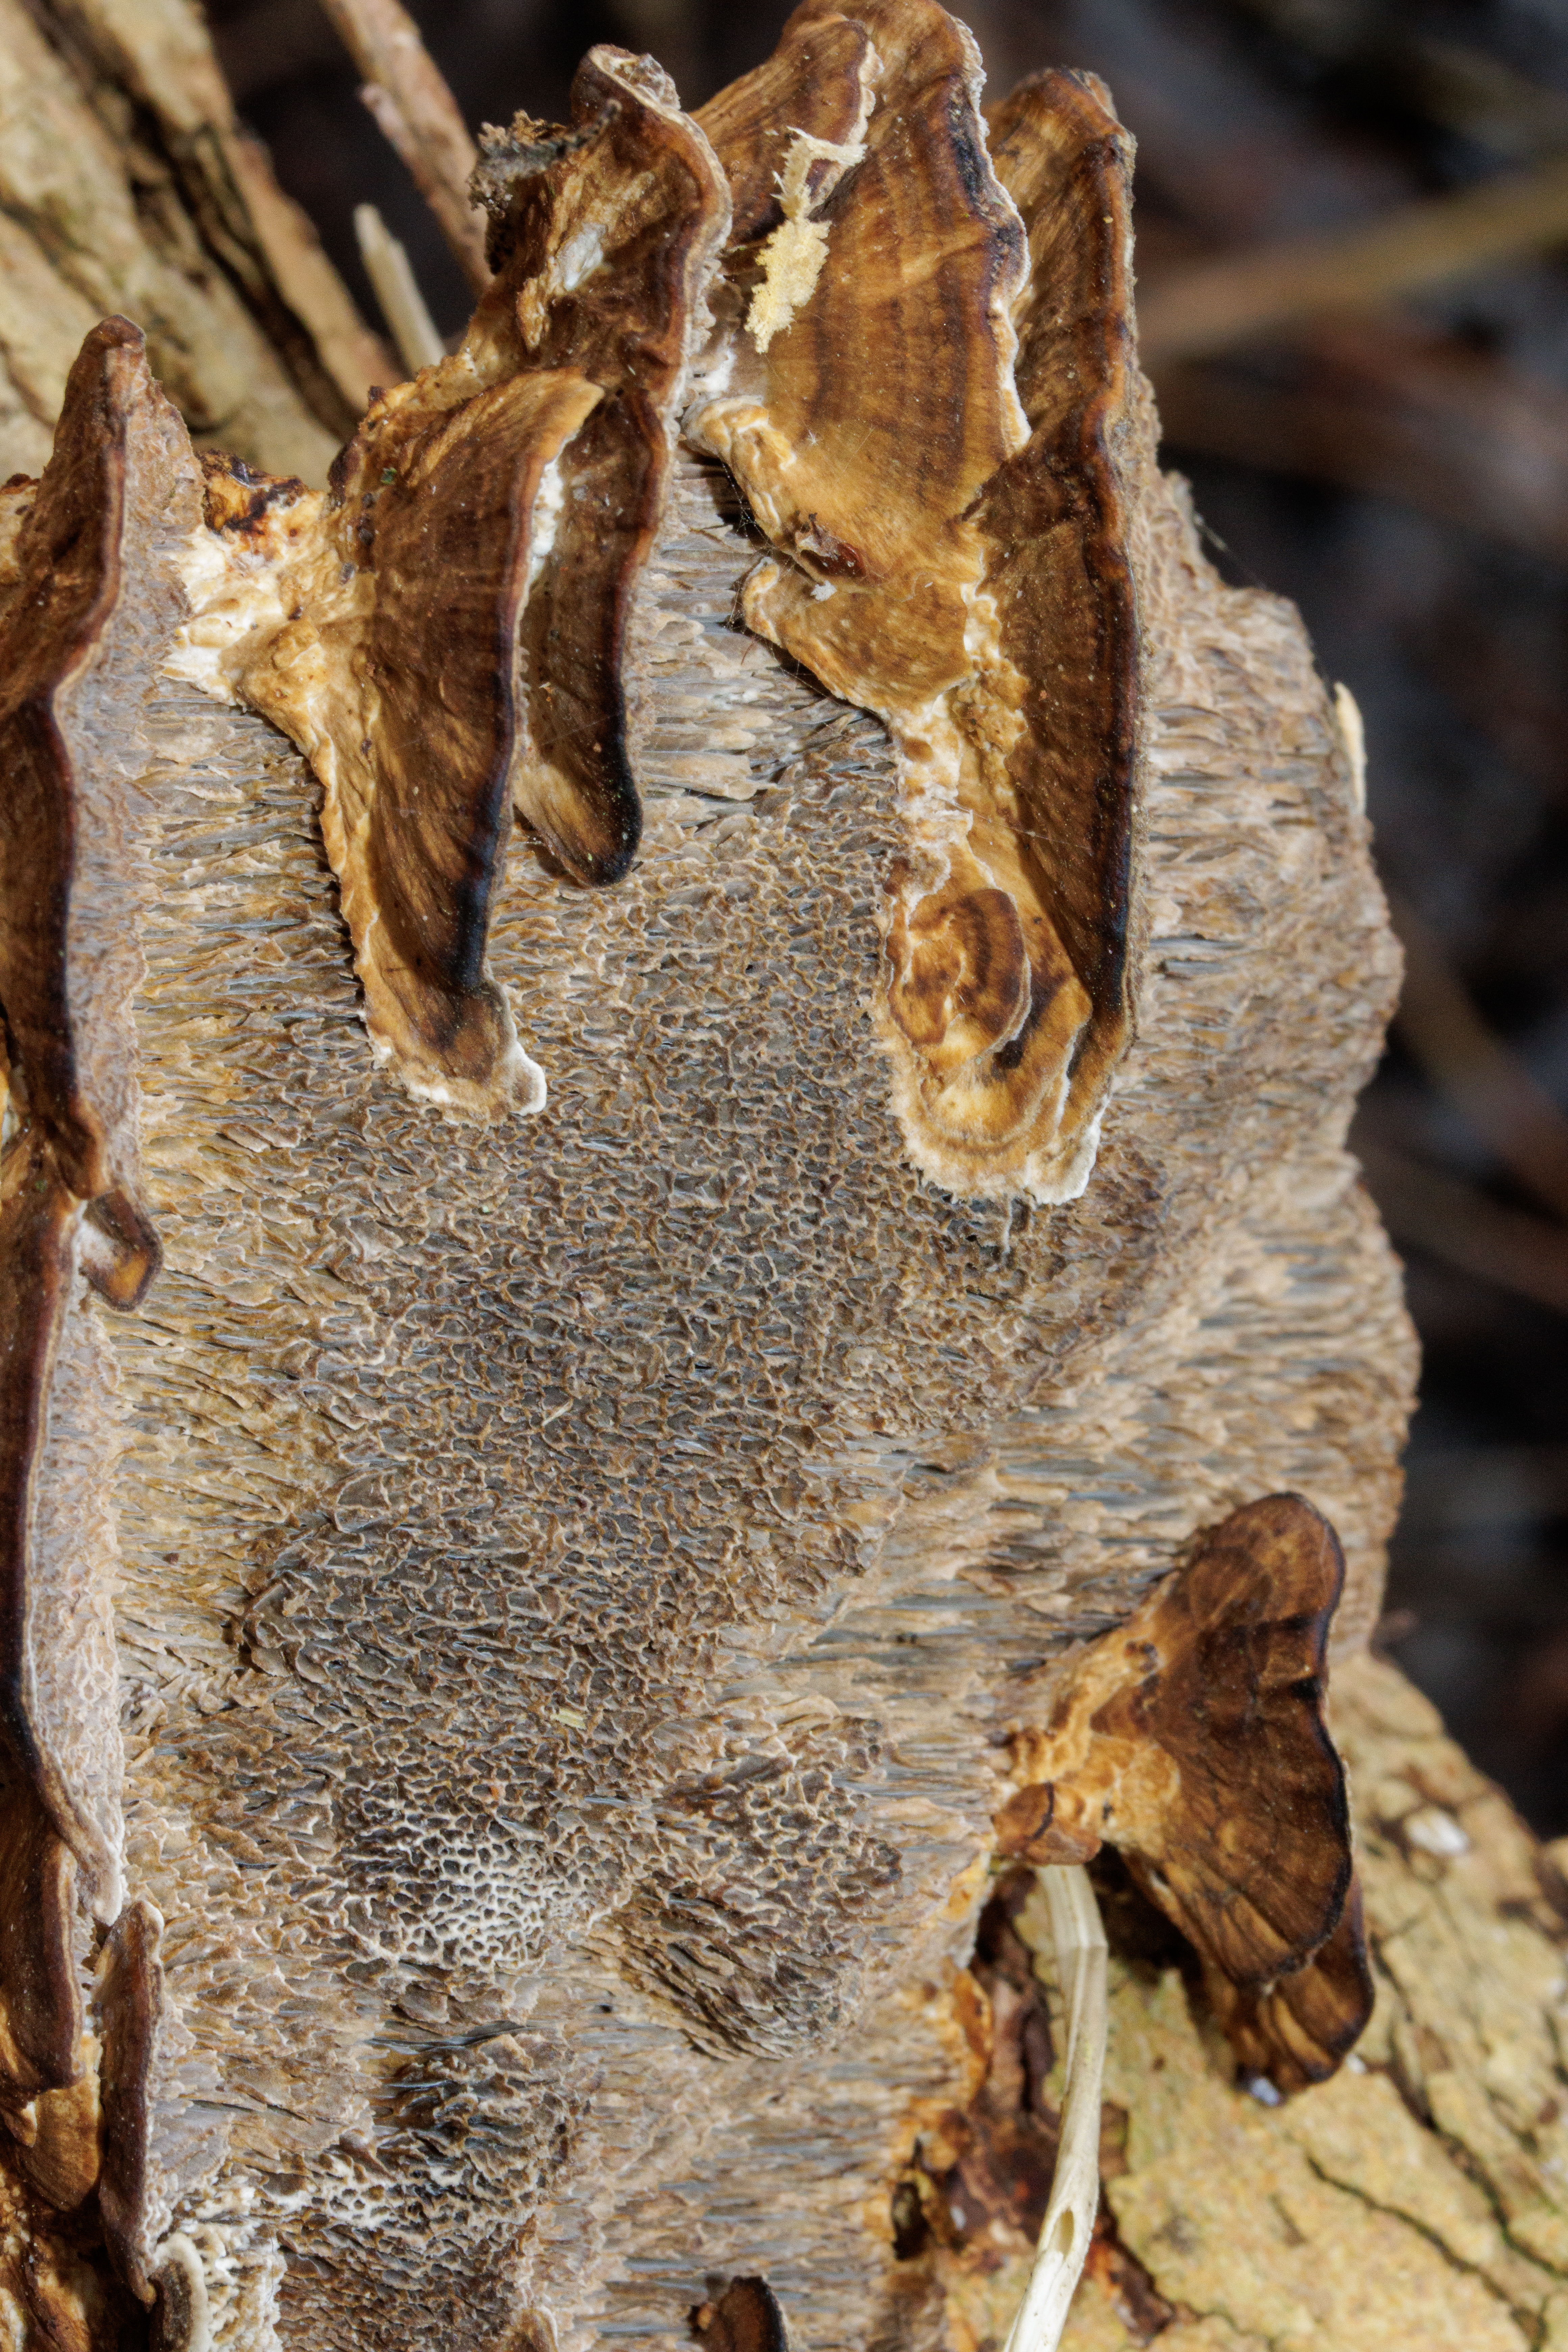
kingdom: Fungi
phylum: Basidiomycota
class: Agaricomycetes
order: Polyporales
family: Polyporaceae
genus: Daedaleopsis
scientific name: Daedaleopsis confragosa
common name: Rødmende læderporesvamp
